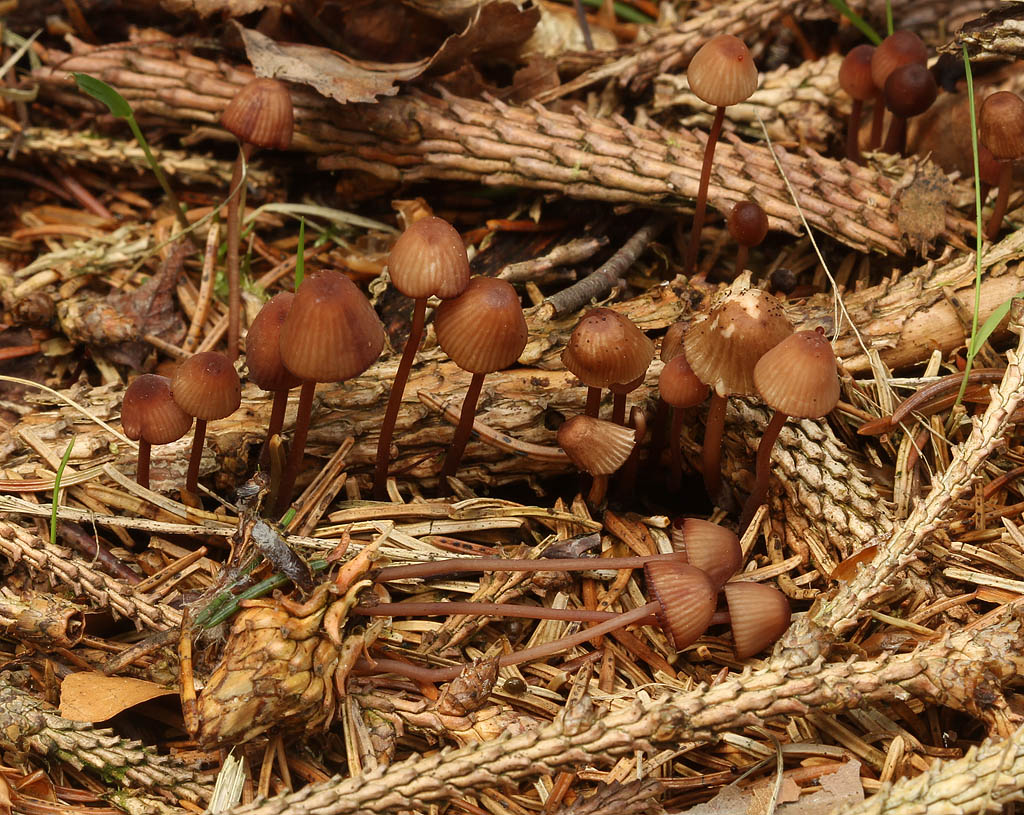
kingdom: Fungi
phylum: Basidiomycota
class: Agaricomycetes
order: Agaricales
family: Mycenaceae
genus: Mycena
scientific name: Mycena sanguinolenta
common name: rødmælket huesvamp
